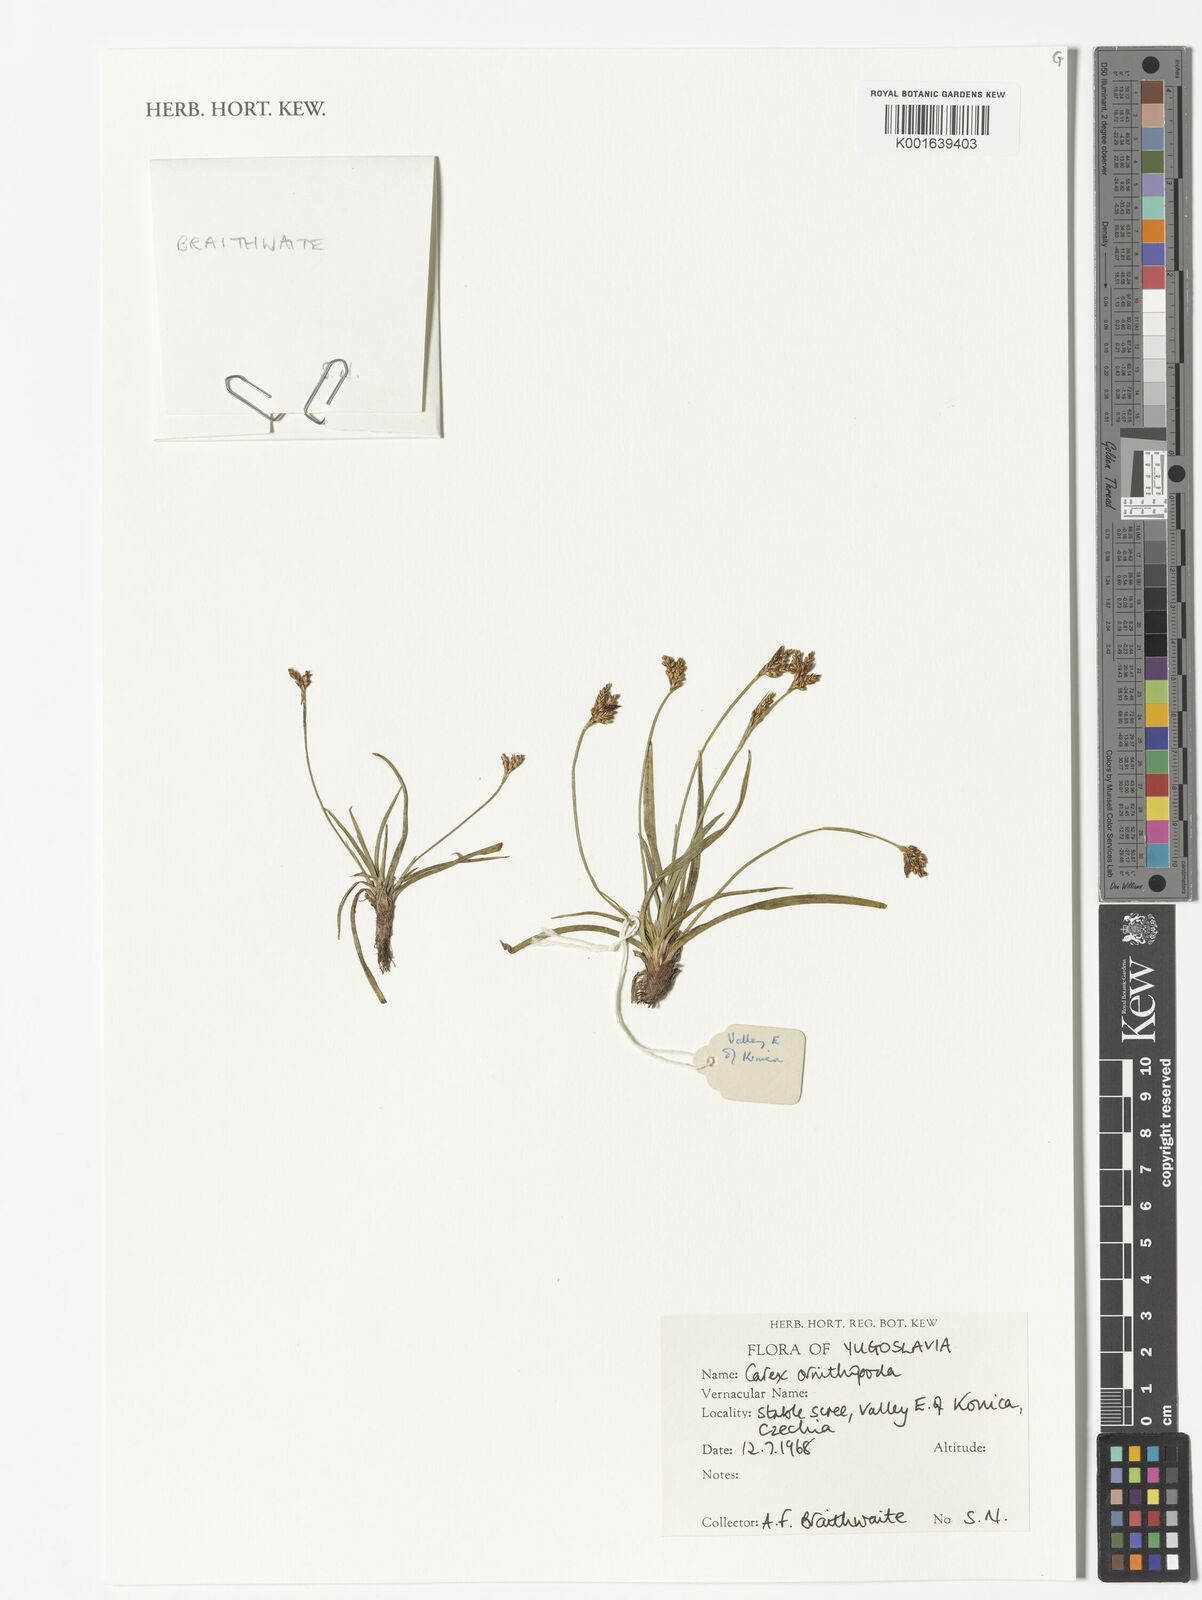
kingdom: Plantae
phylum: Tracheophyta
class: Liliopsida
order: Poales
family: Cyperaceae
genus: Carex
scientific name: Carex ornithopoda
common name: Bird's-foot sedge
